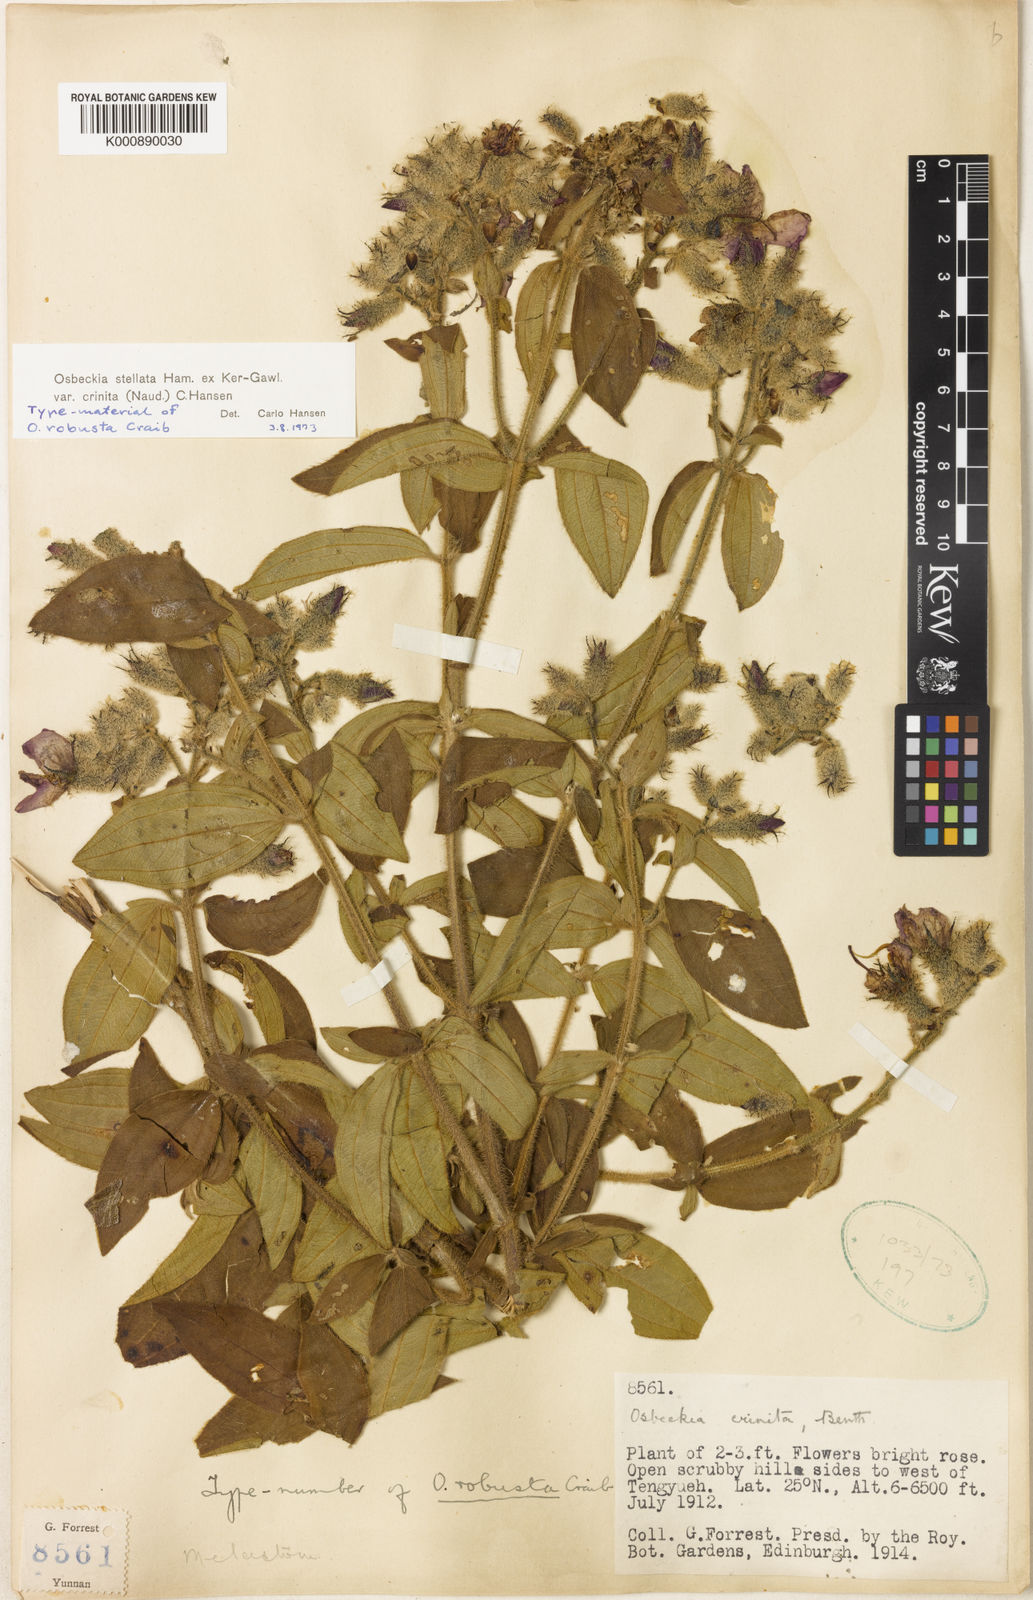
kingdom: Plantae
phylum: Tracheophyta
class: Magnoliopsida
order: Myrtales
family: Melastomataceae
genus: Osbeckia
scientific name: Osbeckia crinita
